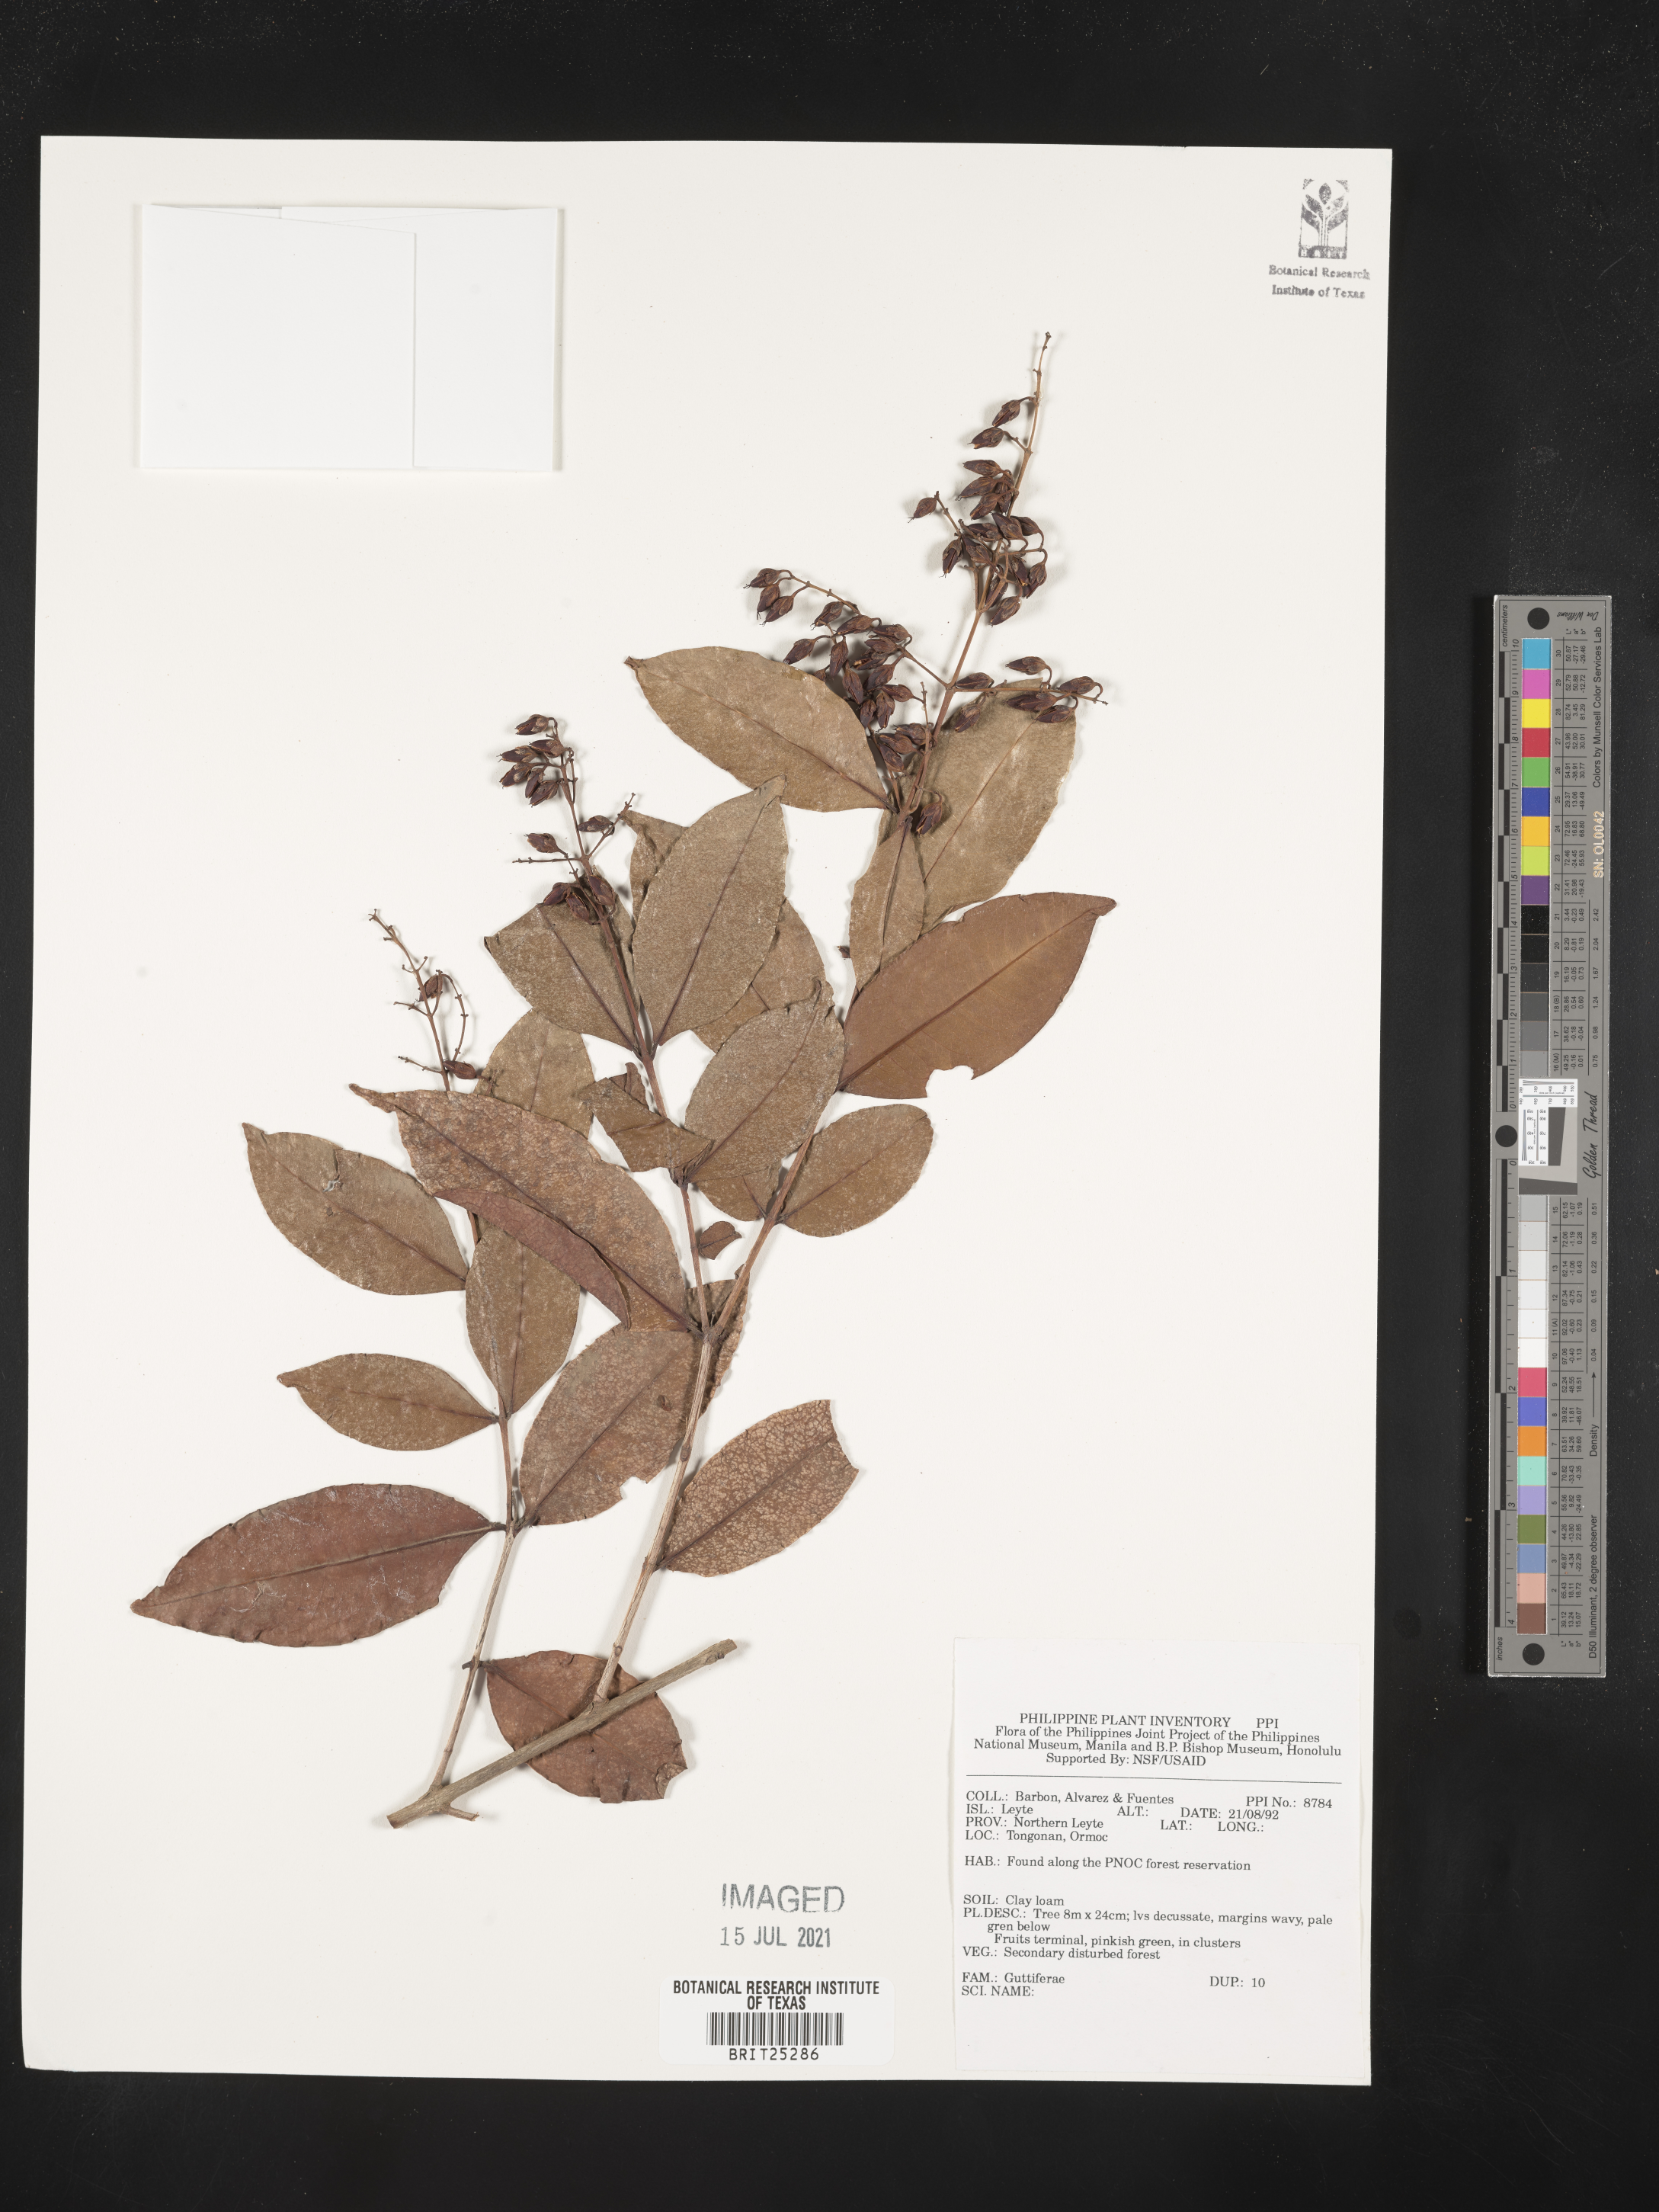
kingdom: Plantae
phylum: Tracheophyta
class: Magnoliopsida
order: Malpighiales
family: Hypericaceae
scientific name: Hypericaceae
